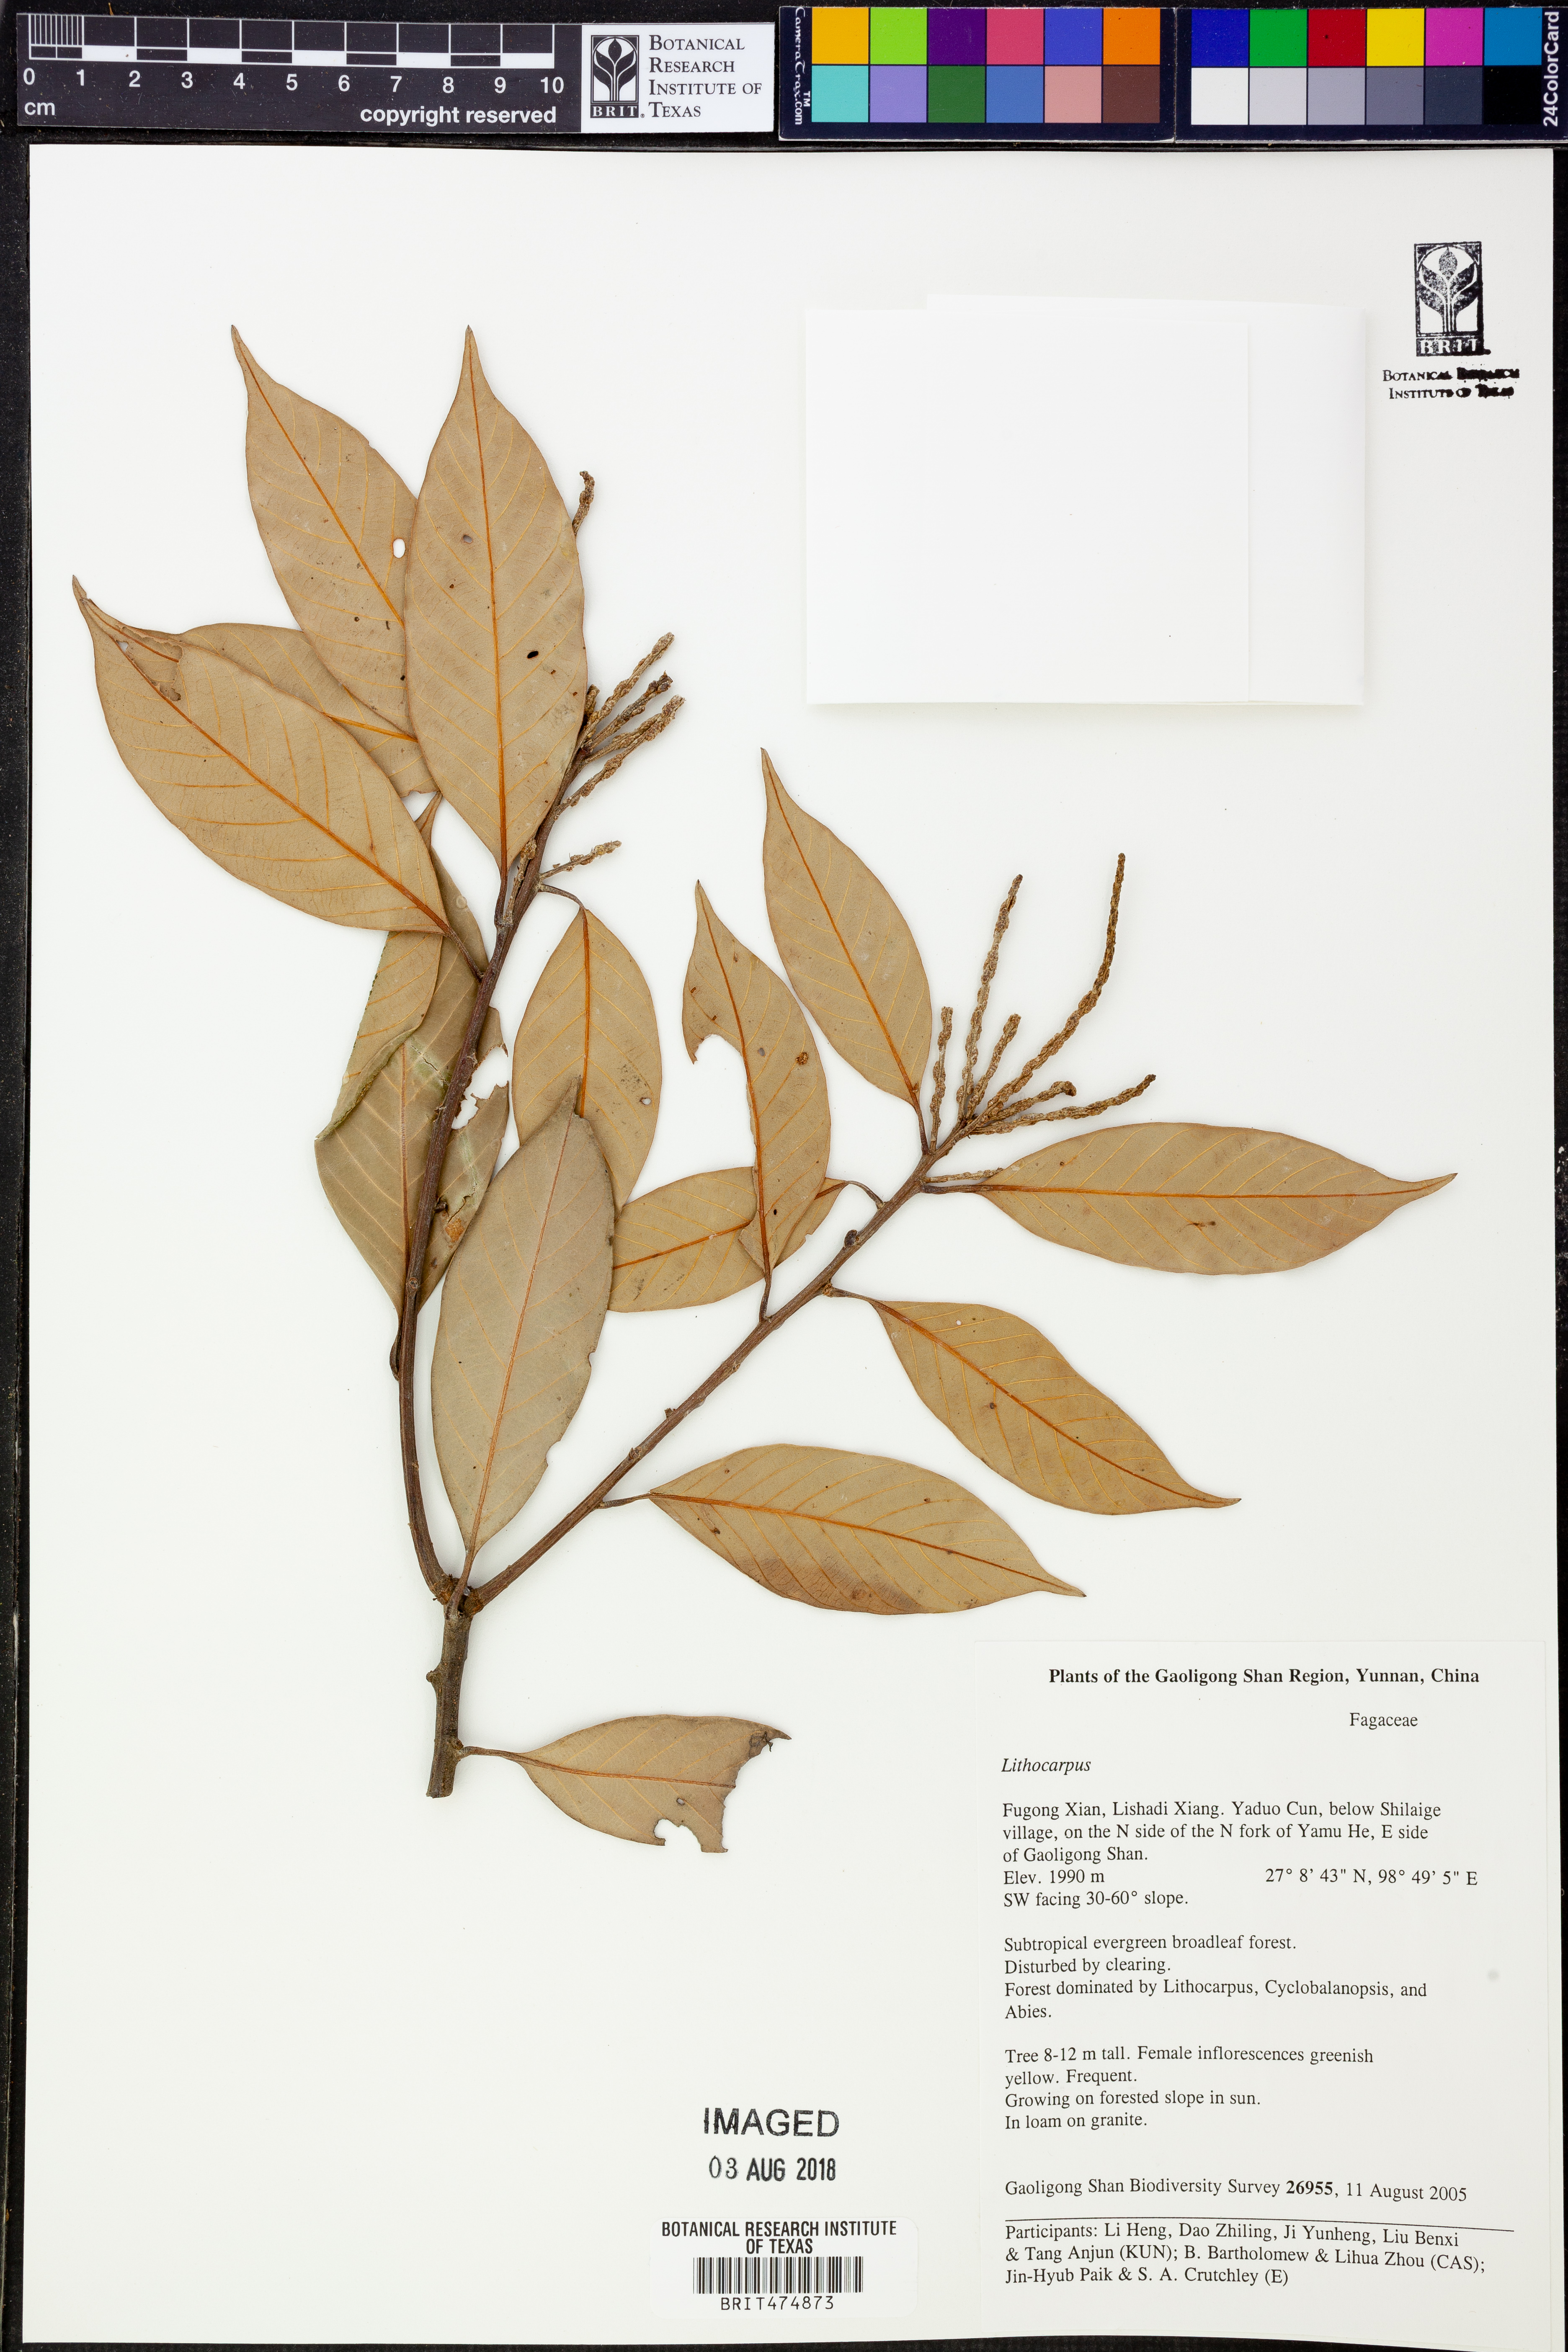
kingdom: Plantae
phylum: Tracheophyta
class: Magnoliopsida
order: Fagales
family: Fagaceae
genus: Lithocarpus
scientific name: Lithocarpus
